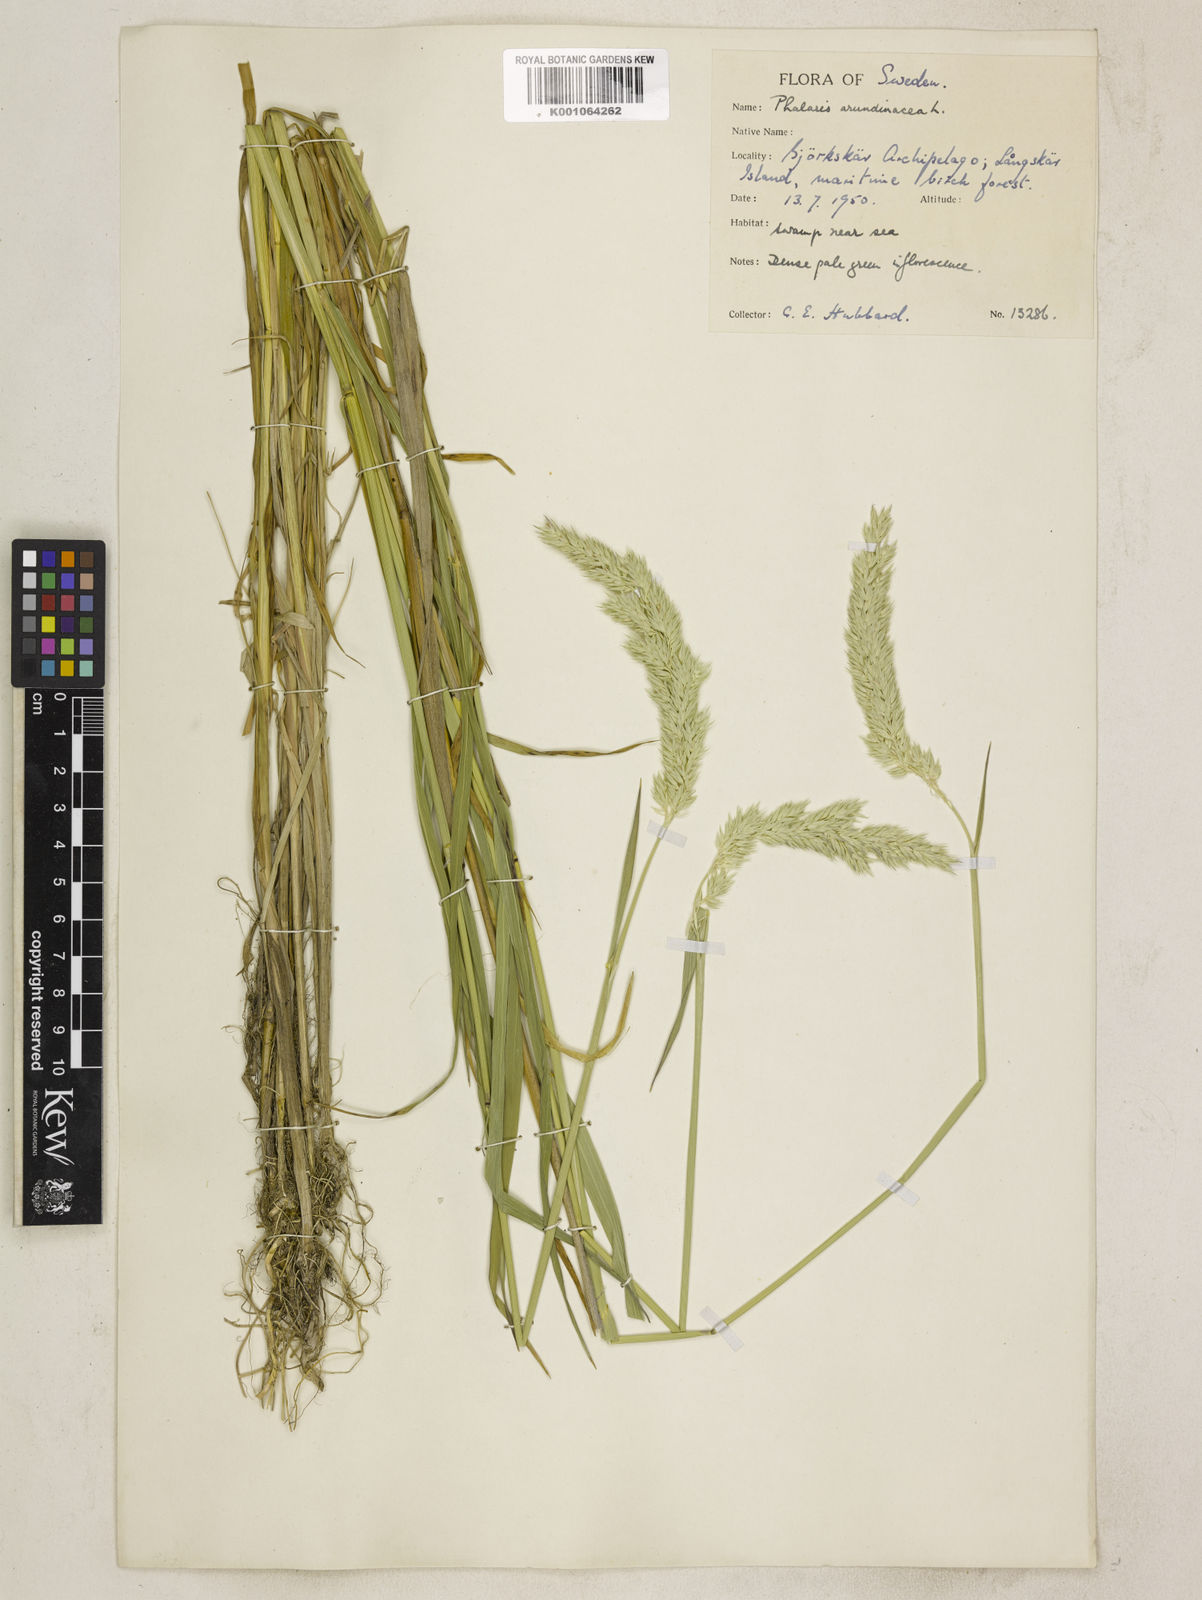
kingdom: Plantae
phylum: Tracheophyta
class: Liliopsida
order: Poales
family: Poaceae
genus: Phalaris
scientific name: Phalaris arundinacea
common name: Reed canary-grass
